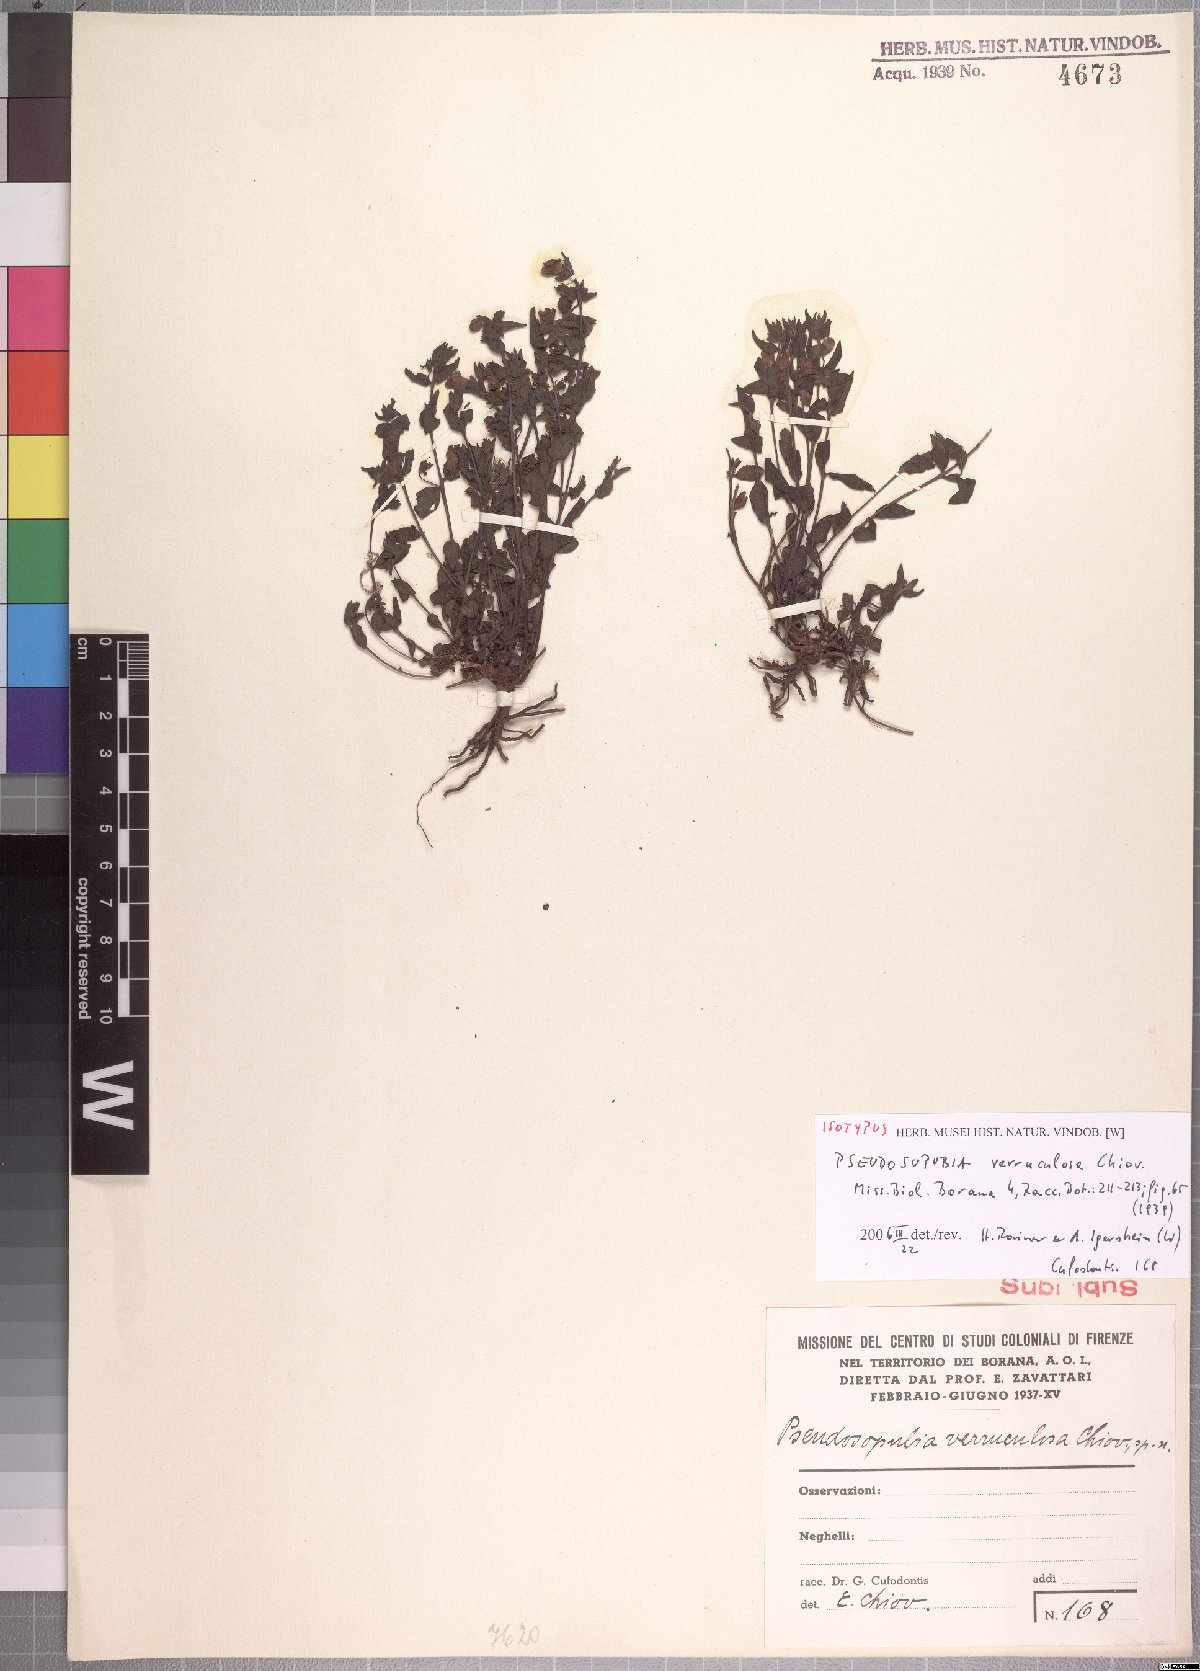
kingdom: Plantae
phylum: Tracheophyta
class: Magnoliopsida
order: Lamiales
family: Orobanchaceae
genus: Pseudosopubia
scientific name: Pseudosopubia procumbens
